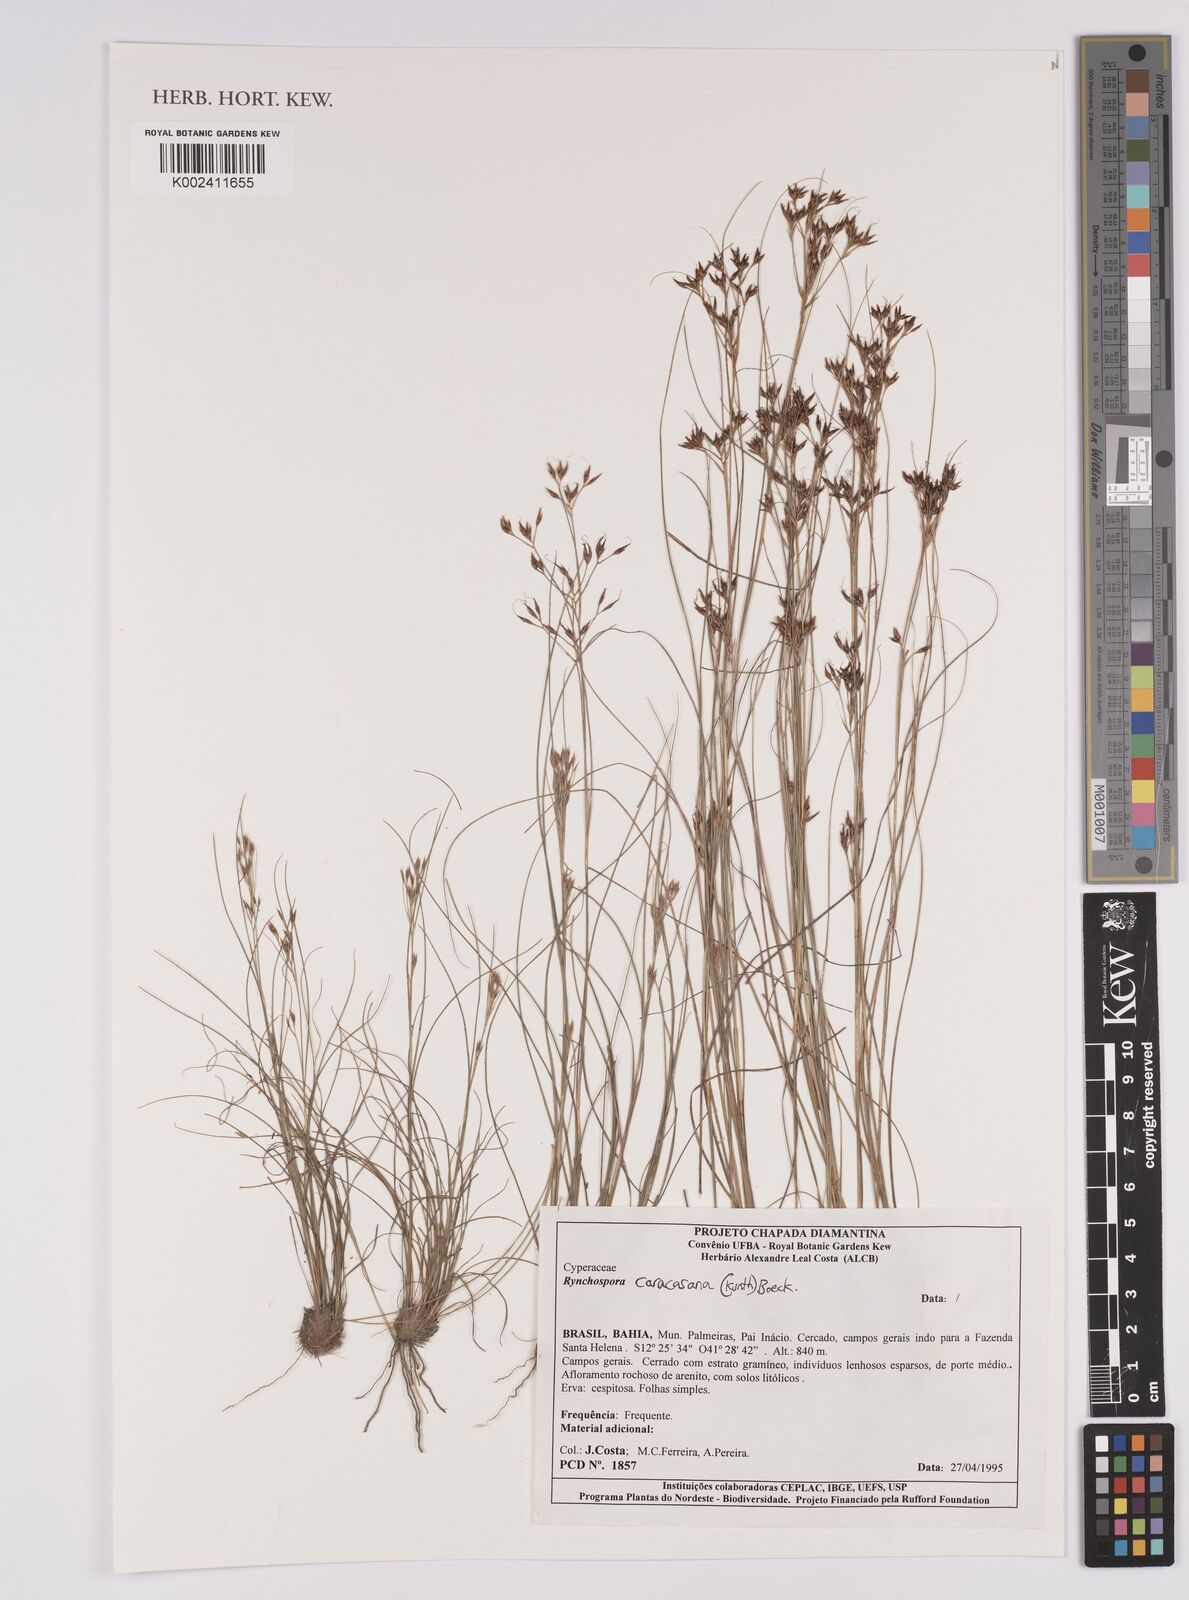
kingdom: Plantae
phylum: Tracheophyta
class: Liliopsida
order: Poales
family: Cyperaceae
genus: Rhynchospora
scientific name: Rhynchospora caracasana
